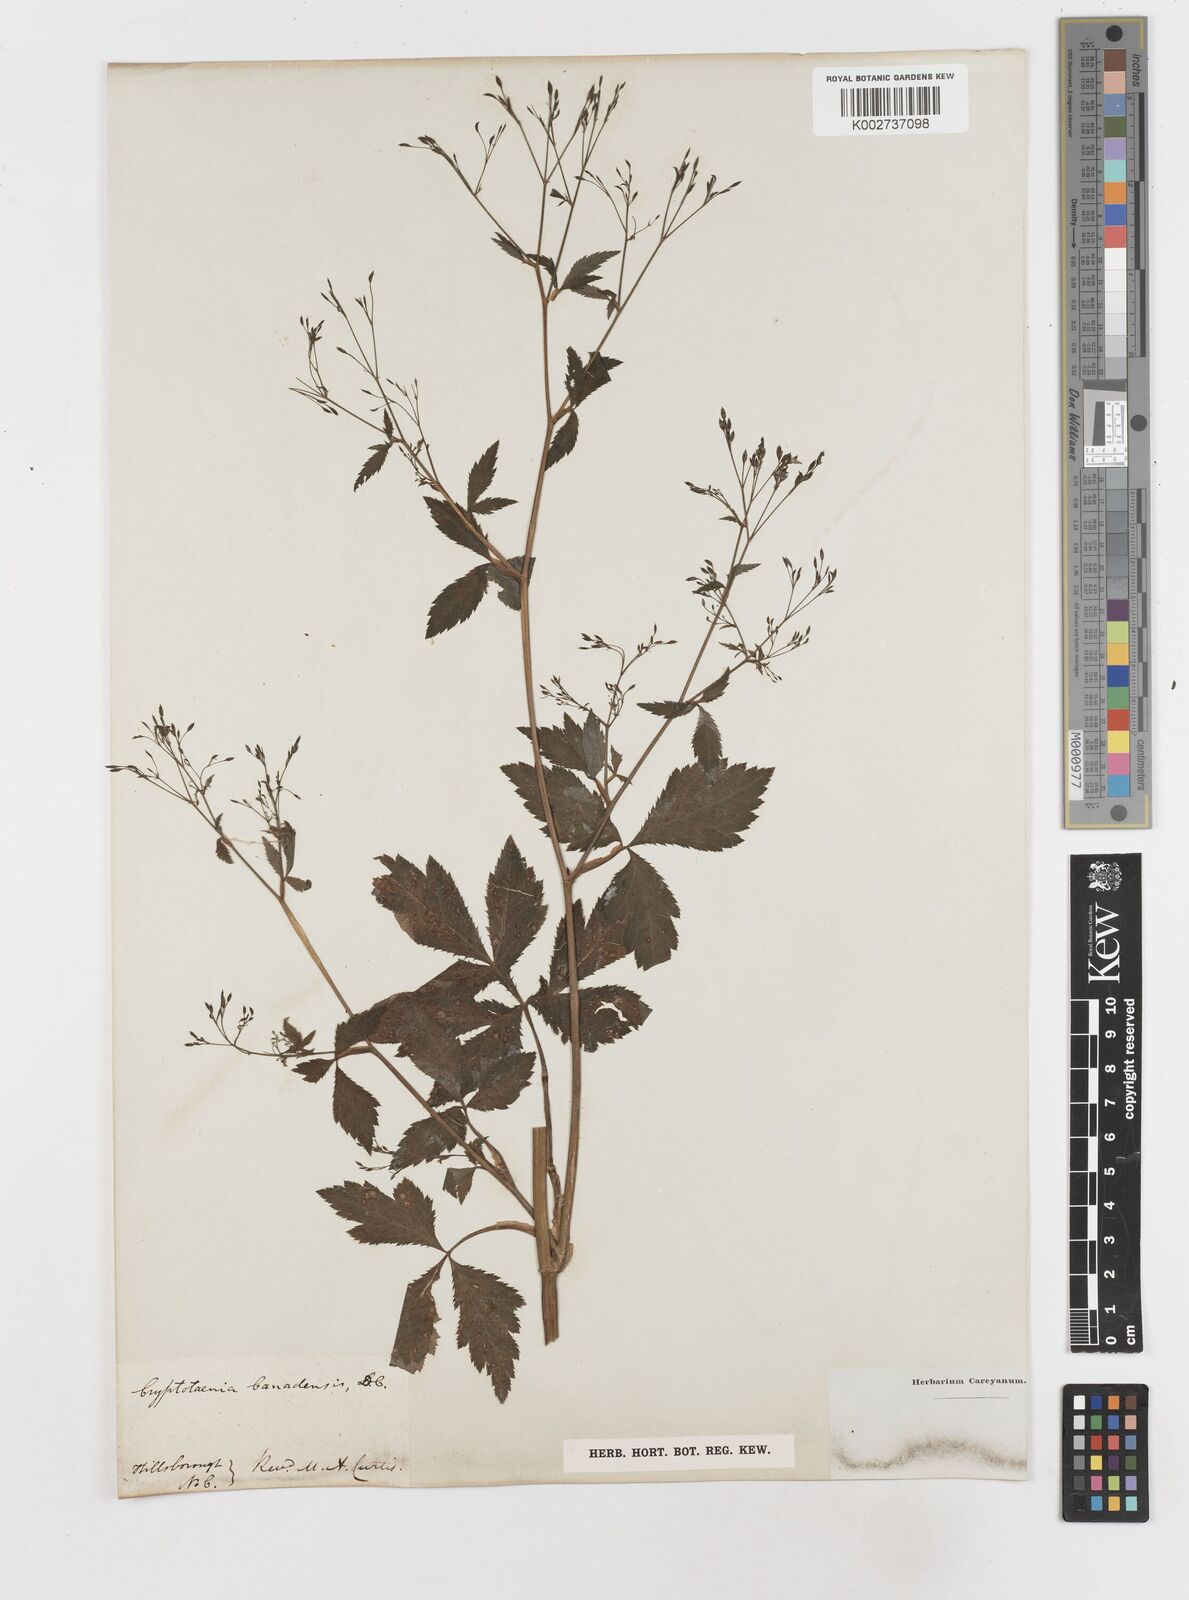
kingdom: Plantae
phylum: Tracheophyta
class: Magnoliopsida
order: Apiales
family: Apiaceae
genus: Cryptotaenia
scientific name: Cryptotaenia
